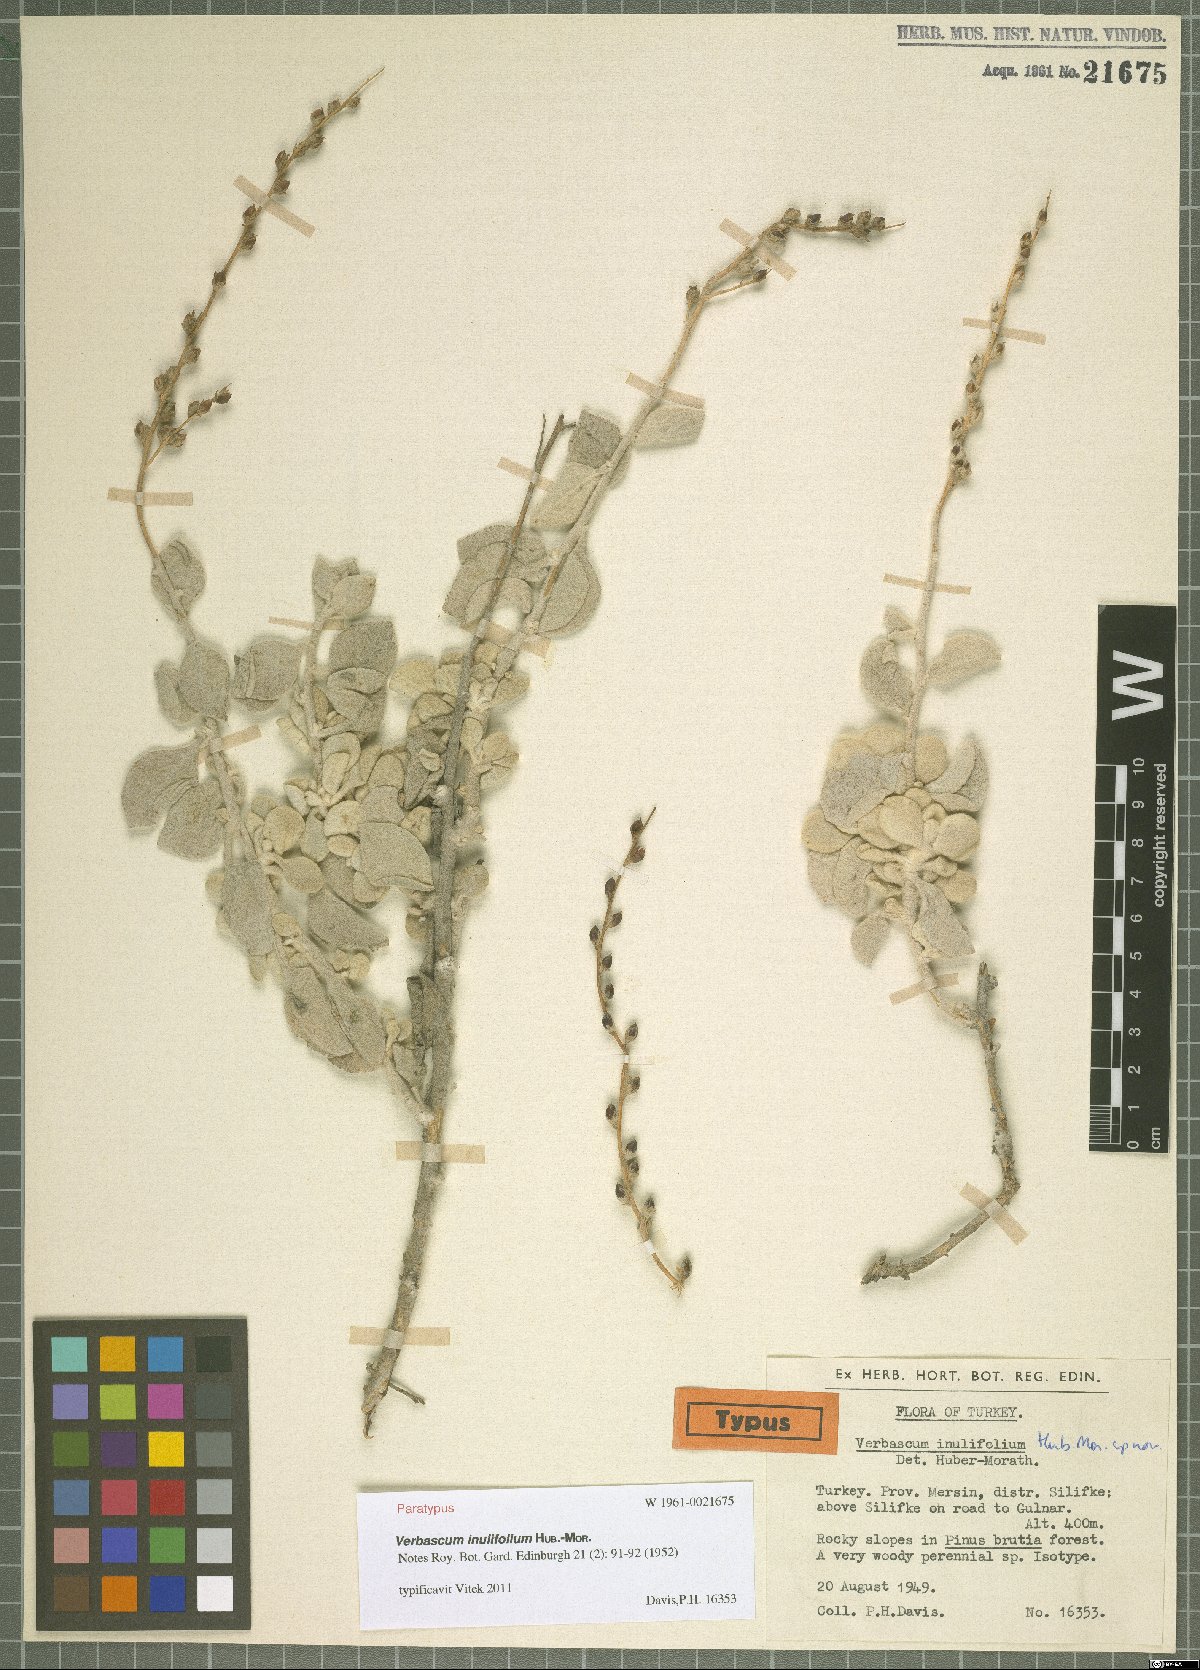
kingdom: Plantae
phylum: Tracheophyta
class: Magnoliopsida
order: Lamiales
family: Scrophulariaceae
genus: Verbascum
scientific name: Verbascum inulifolium
